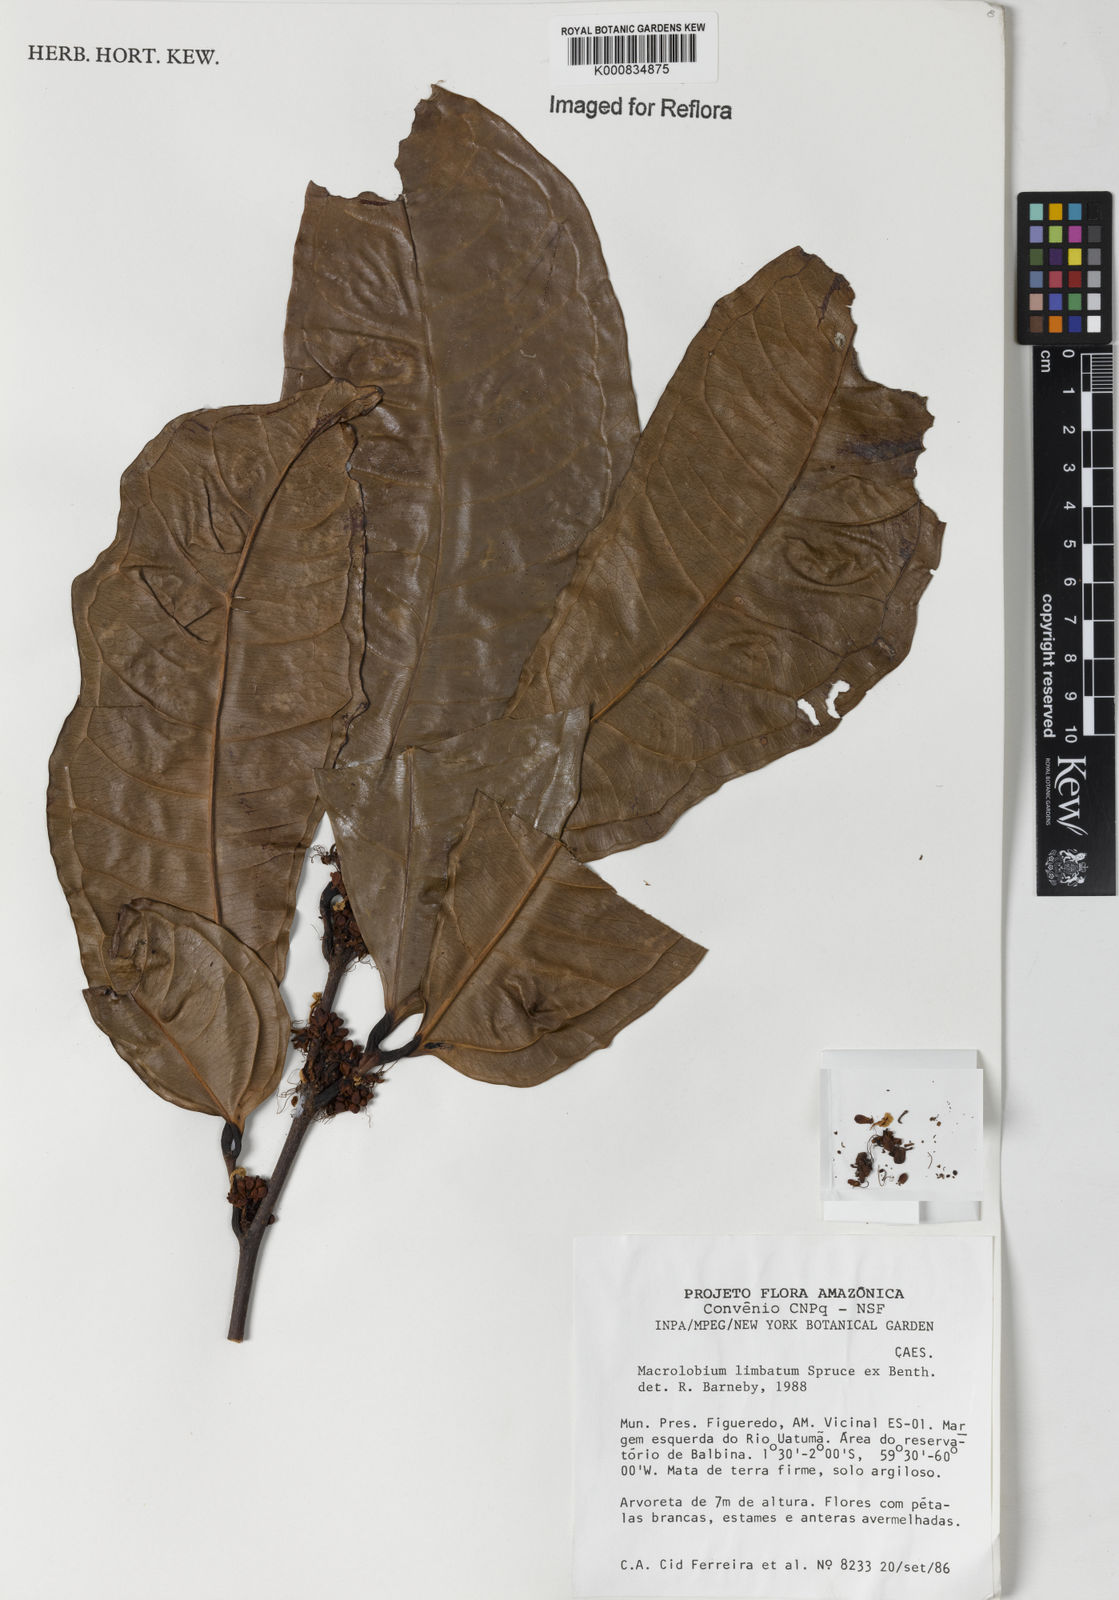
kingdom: Plantae
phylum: Tracheophyta
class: Magnoliopsida
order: Fabales
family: Fabaceae
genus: Macrolobium
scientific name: Macrolobium limbatum
